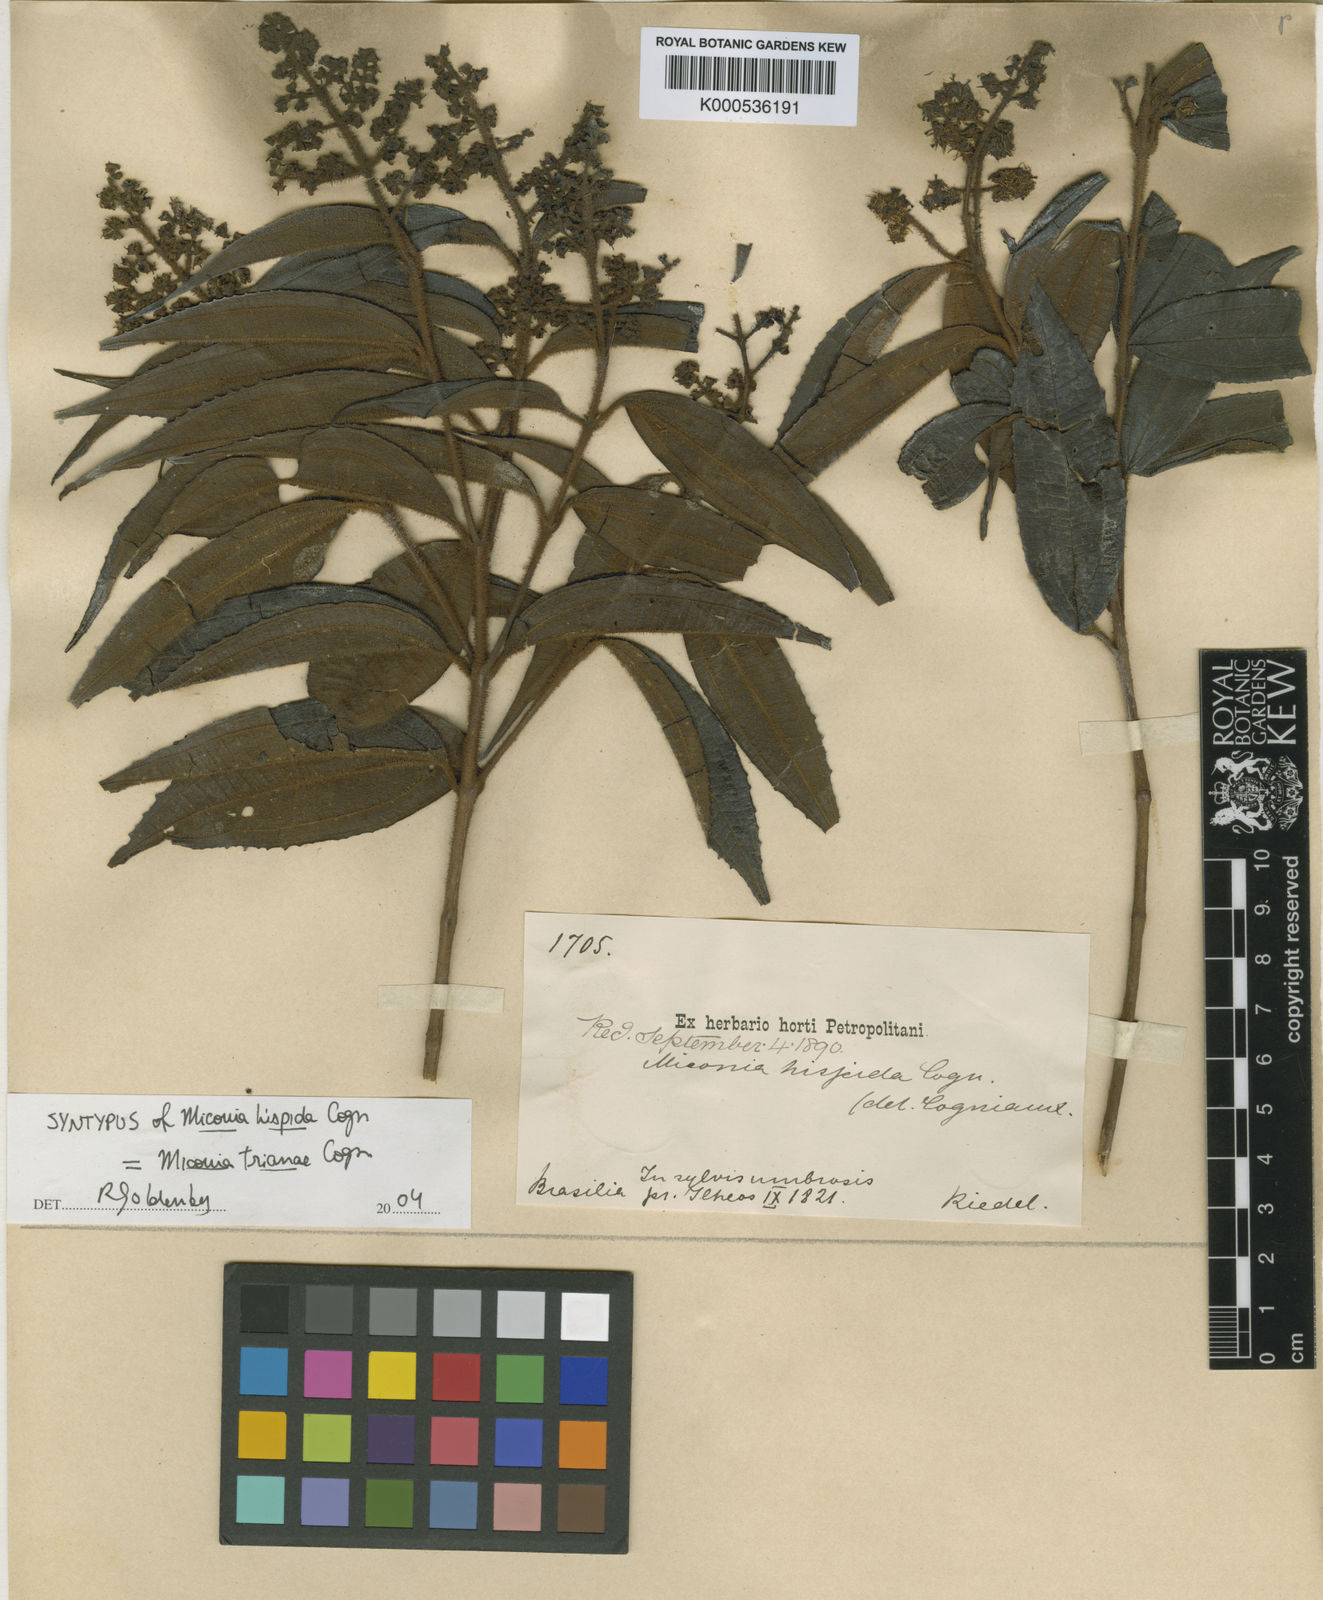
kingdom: Plantae
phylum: Tracheophyta
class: Magnoliopsida
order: Myrtales
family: Melastomataceae
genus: Miconia
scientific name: Miconia trianae
